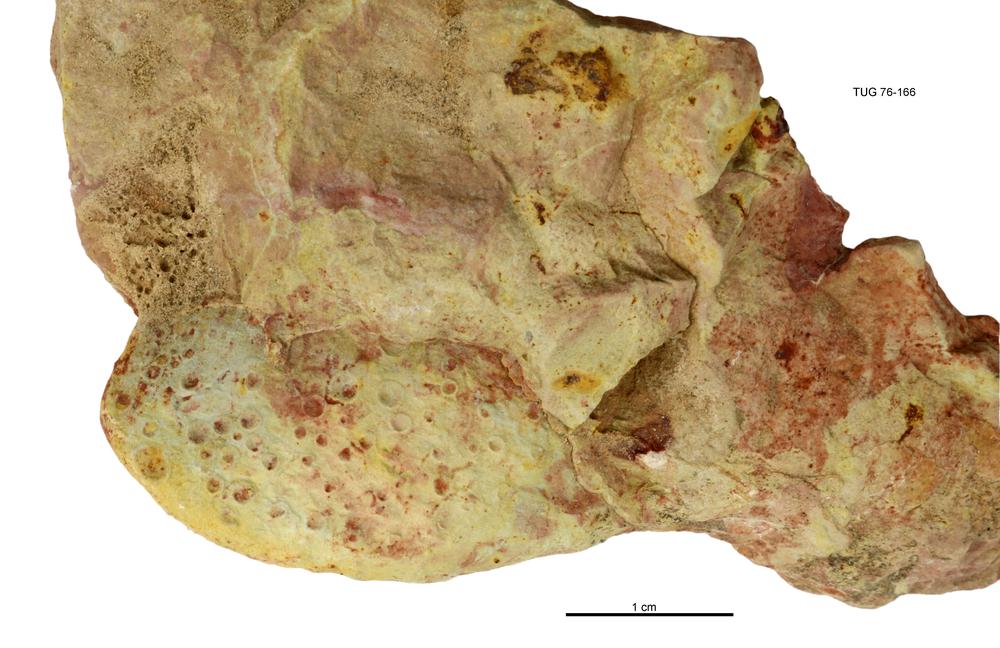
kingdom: Animalia
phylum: Mollusca
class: Bivalvia
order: Cyrtodontida
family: Cyrtodontidae
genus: Cypricardites
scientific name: Cypricardites
